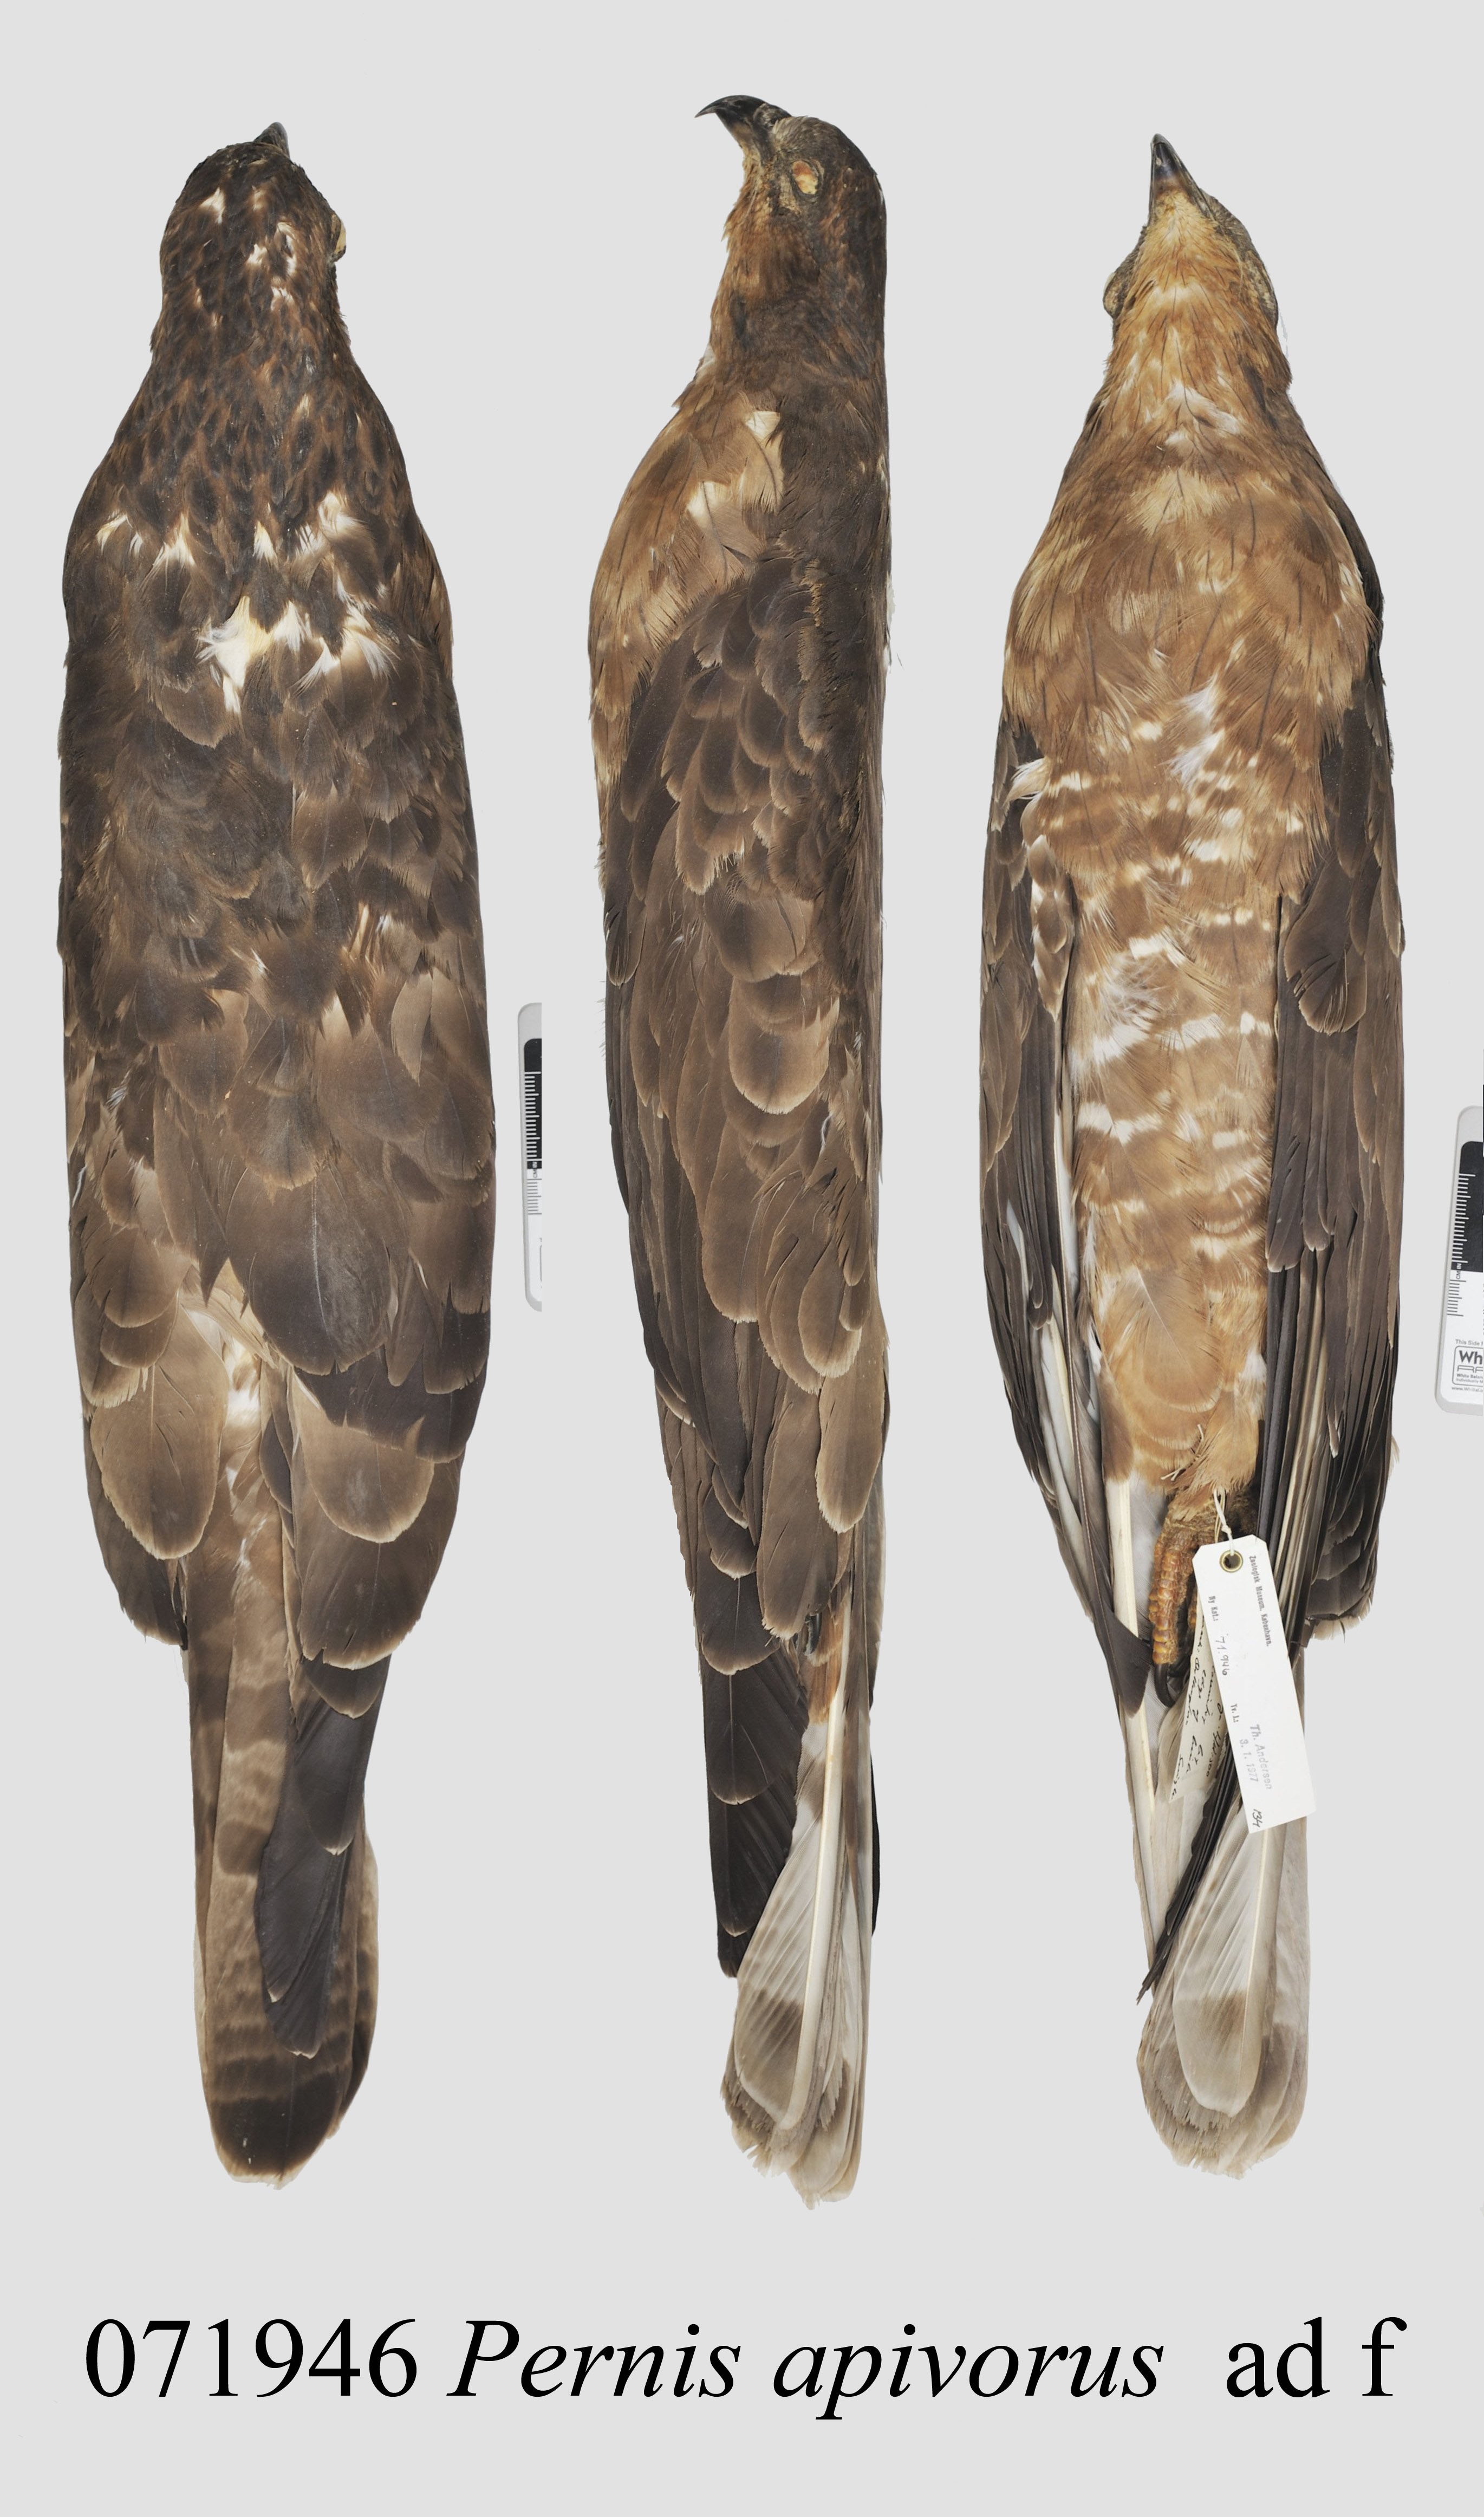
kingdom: Animalia
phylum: Chordata
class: Aves
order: Accipitriformes
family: Accipitridae
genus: Pernis
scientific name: Pernis apivorus
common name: European honey buzzard
